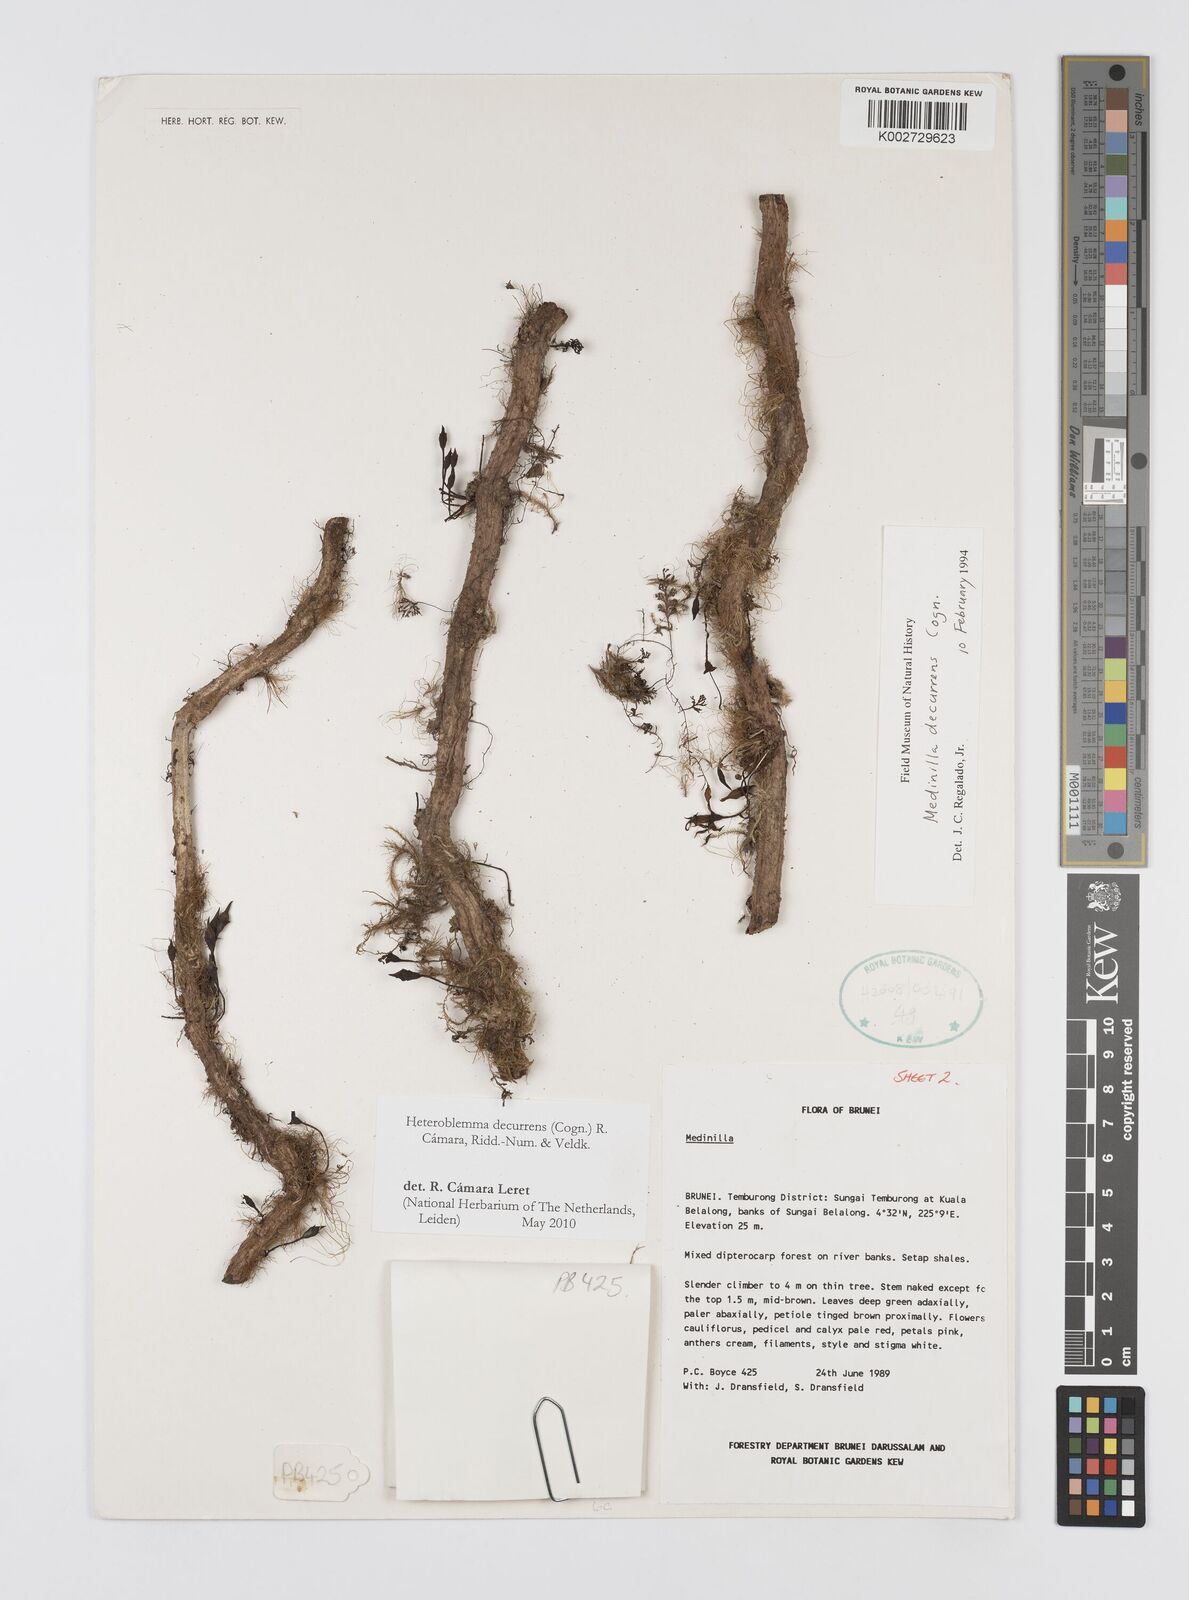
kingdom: Plantae
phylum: Tracheophyta
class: Magnoliopsida
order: Myrtales
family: Melastomataceae
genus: Heteroblemma
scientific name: Heteroblemma decurrens
